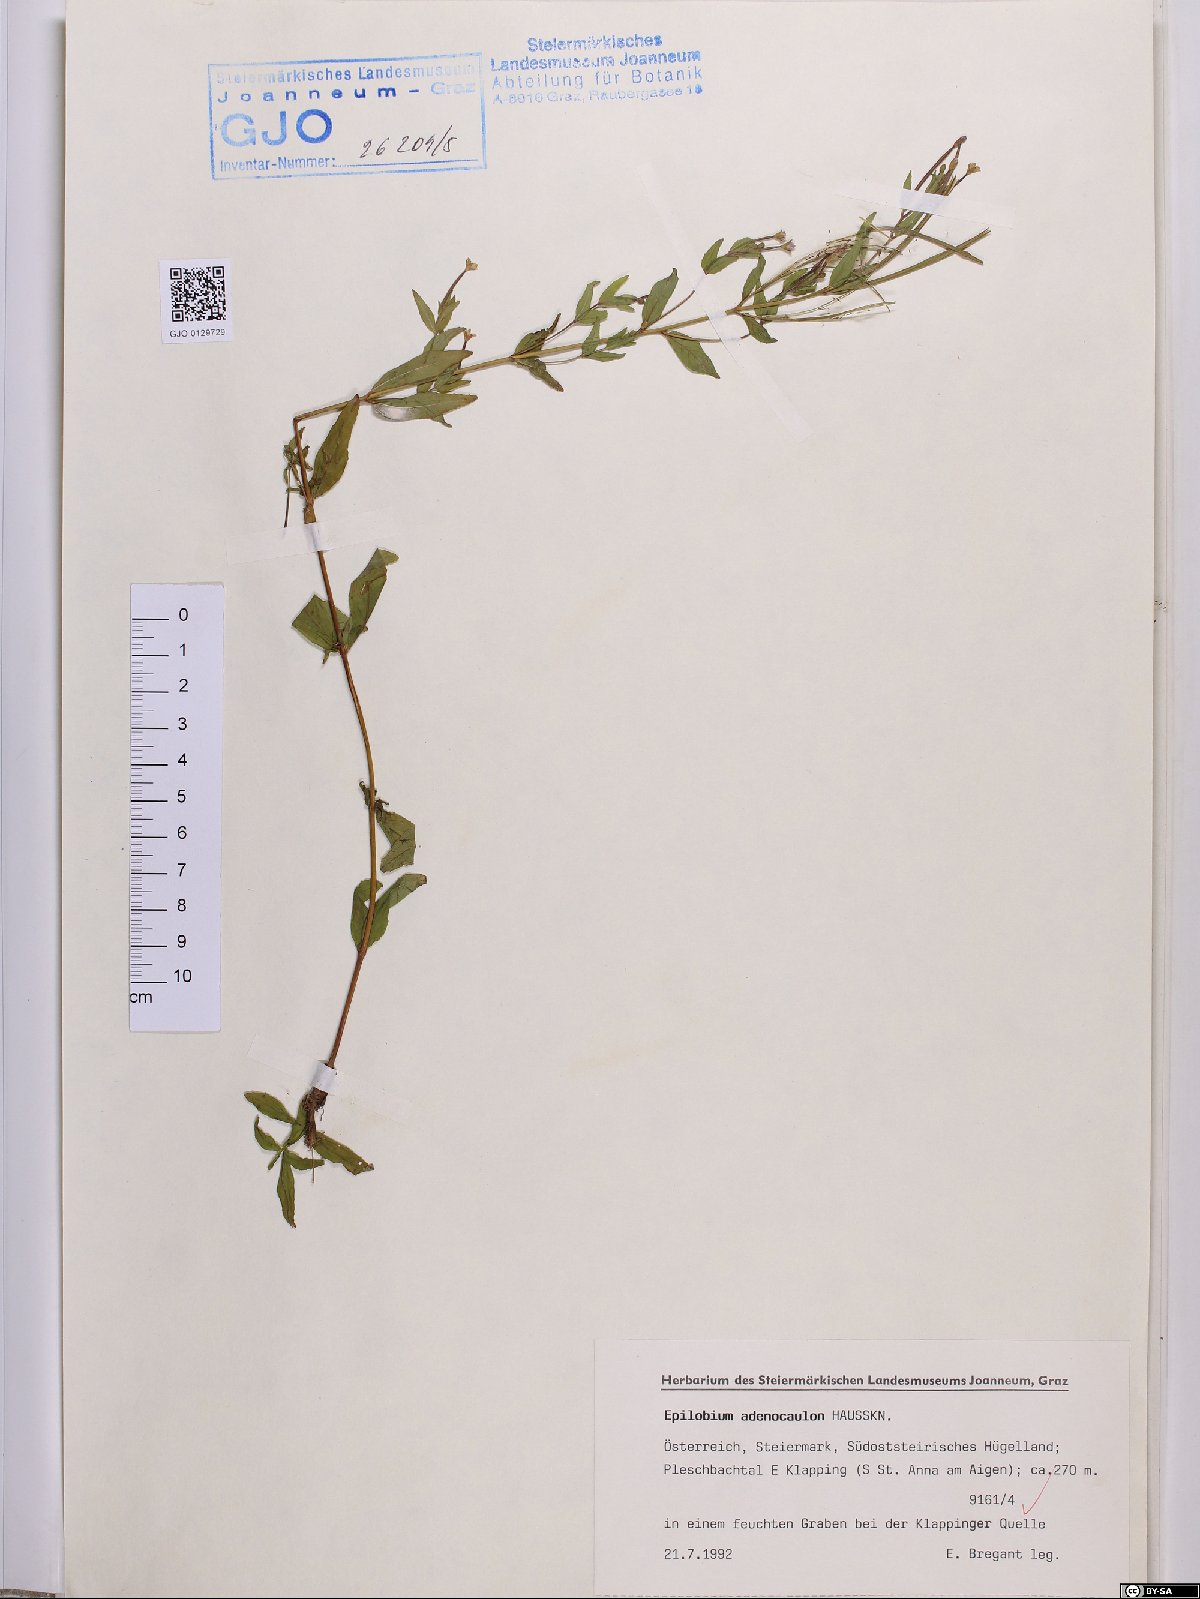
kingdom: Plantae
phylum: Tracheophyta
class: Magnoliopsida
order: Myrtales
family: Onagraceae
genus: Epilobium
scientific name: Epilobium ciliatum
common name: American willowherb
